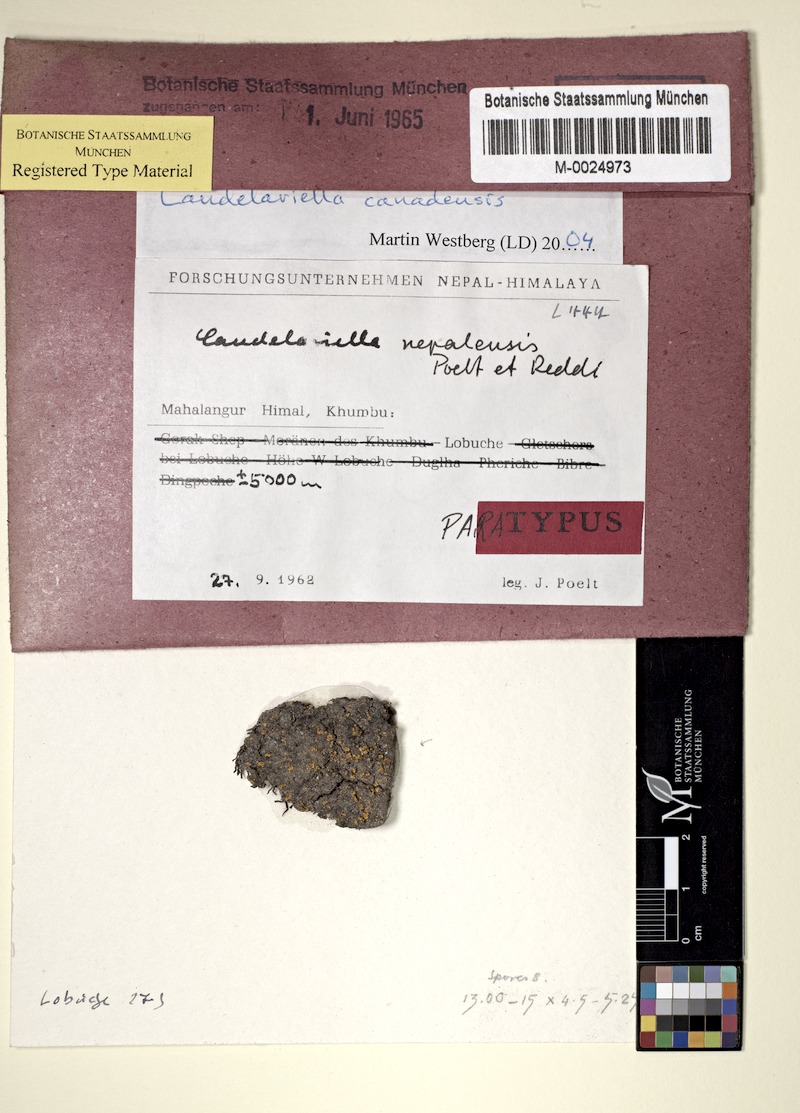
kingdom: Fungi
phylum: Ascomycota
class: Candelariomycetes
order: Candelariales
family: Candelariaceae
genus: Opeltiella
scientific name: Opeltiella canadensis
